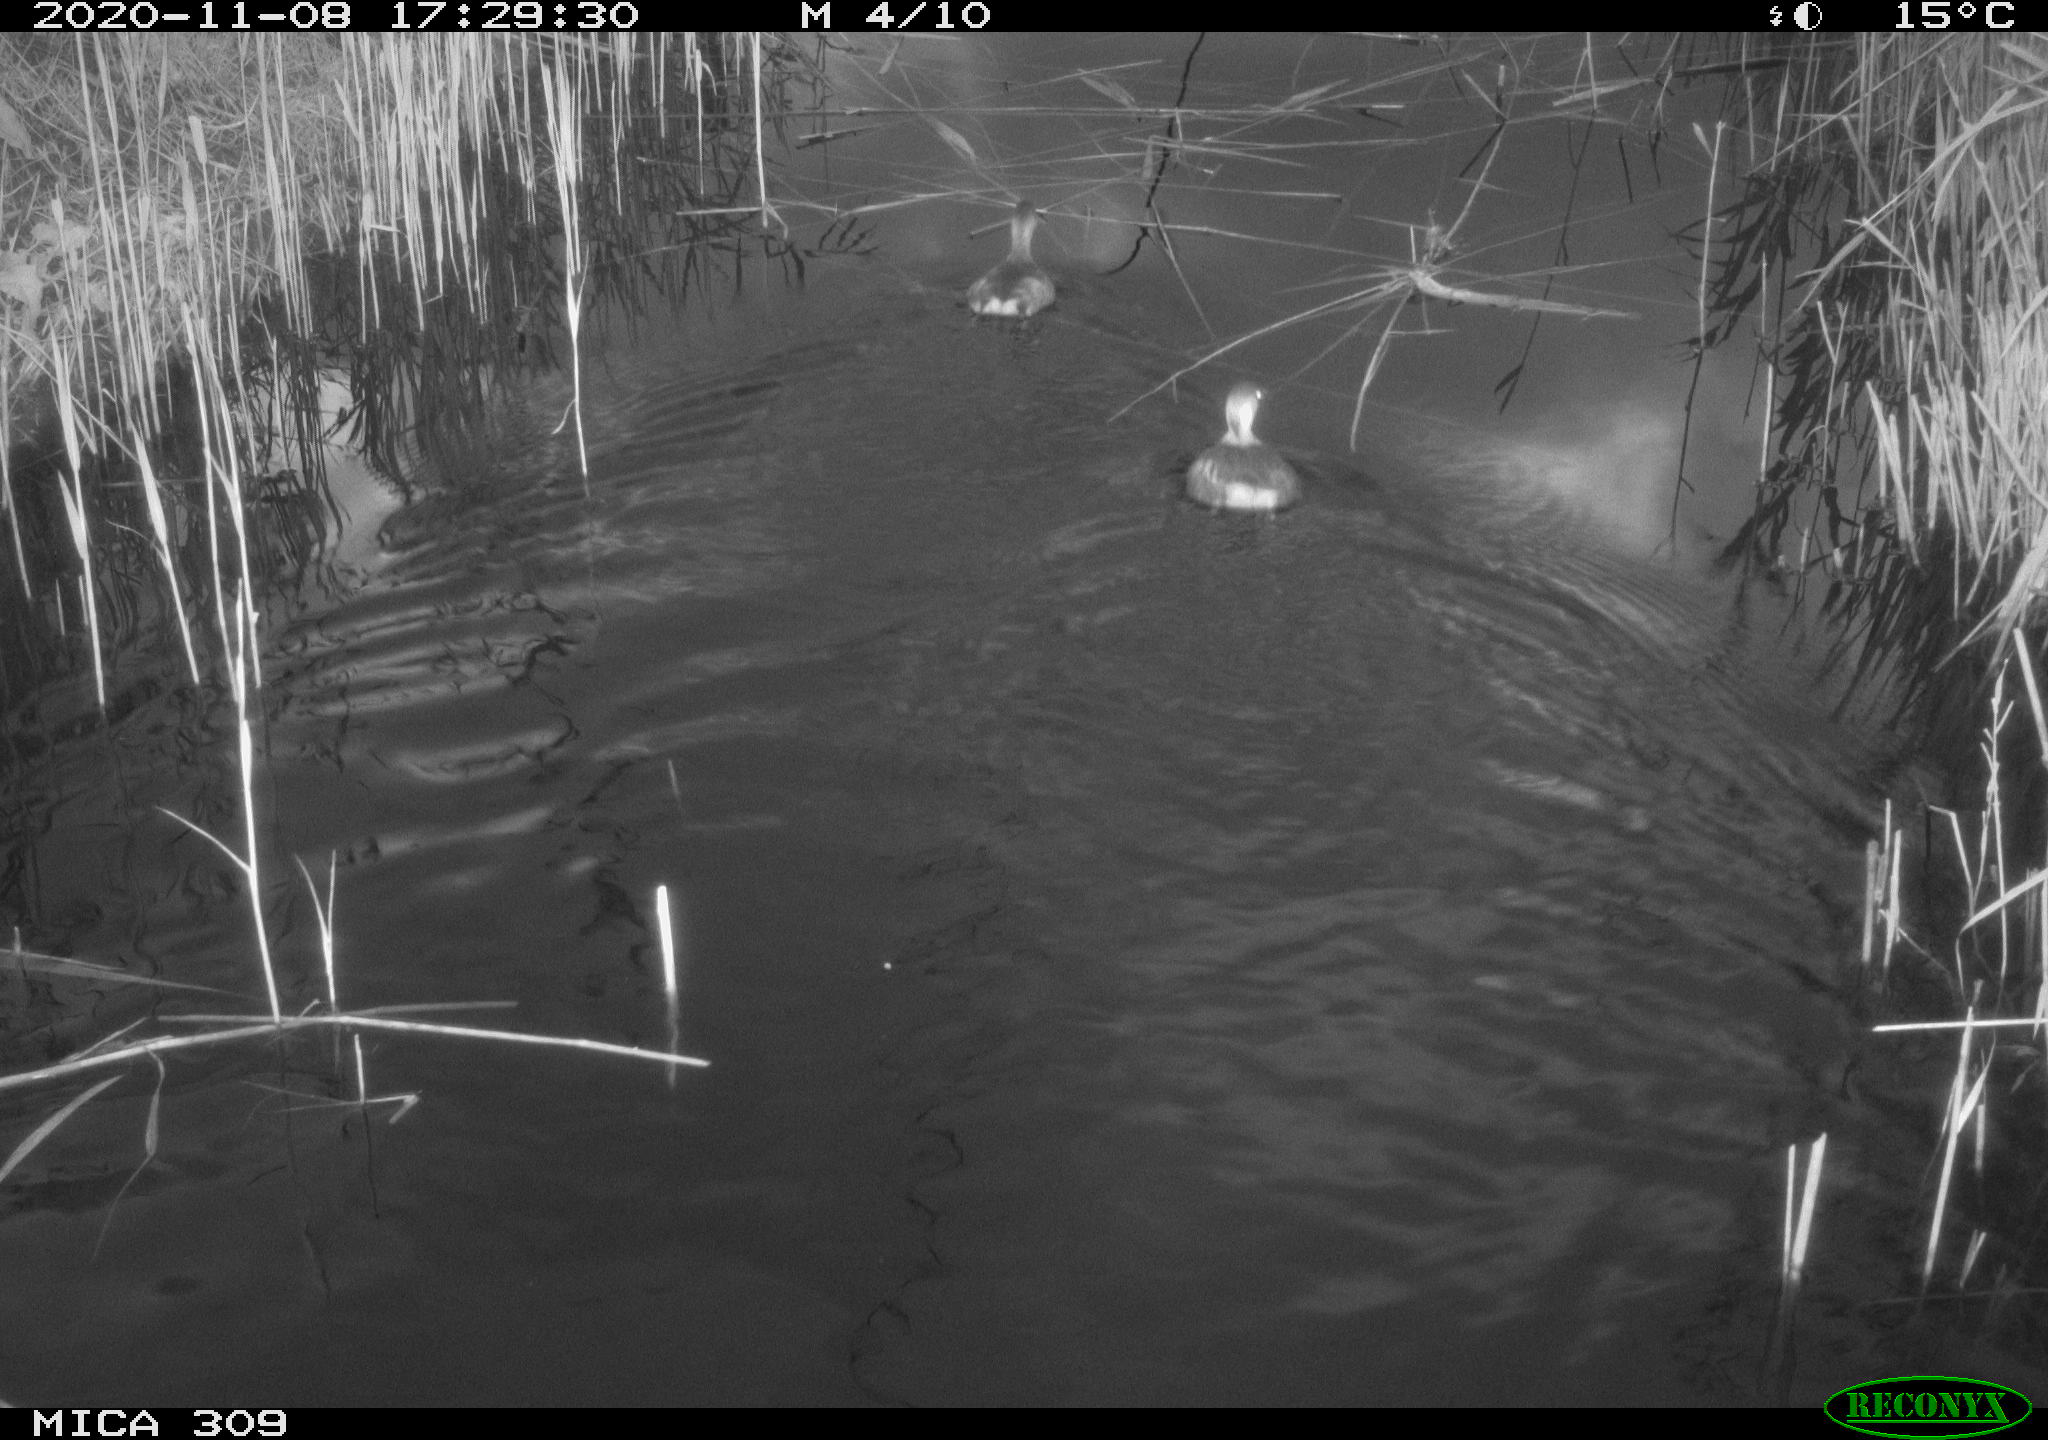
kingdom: Animalia
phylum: Chordata
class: Aves
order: Podicipediformes
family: Podicipedidae
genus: Tachybaptus
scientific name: Tachybaptus ruficollis
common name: Little grebe
